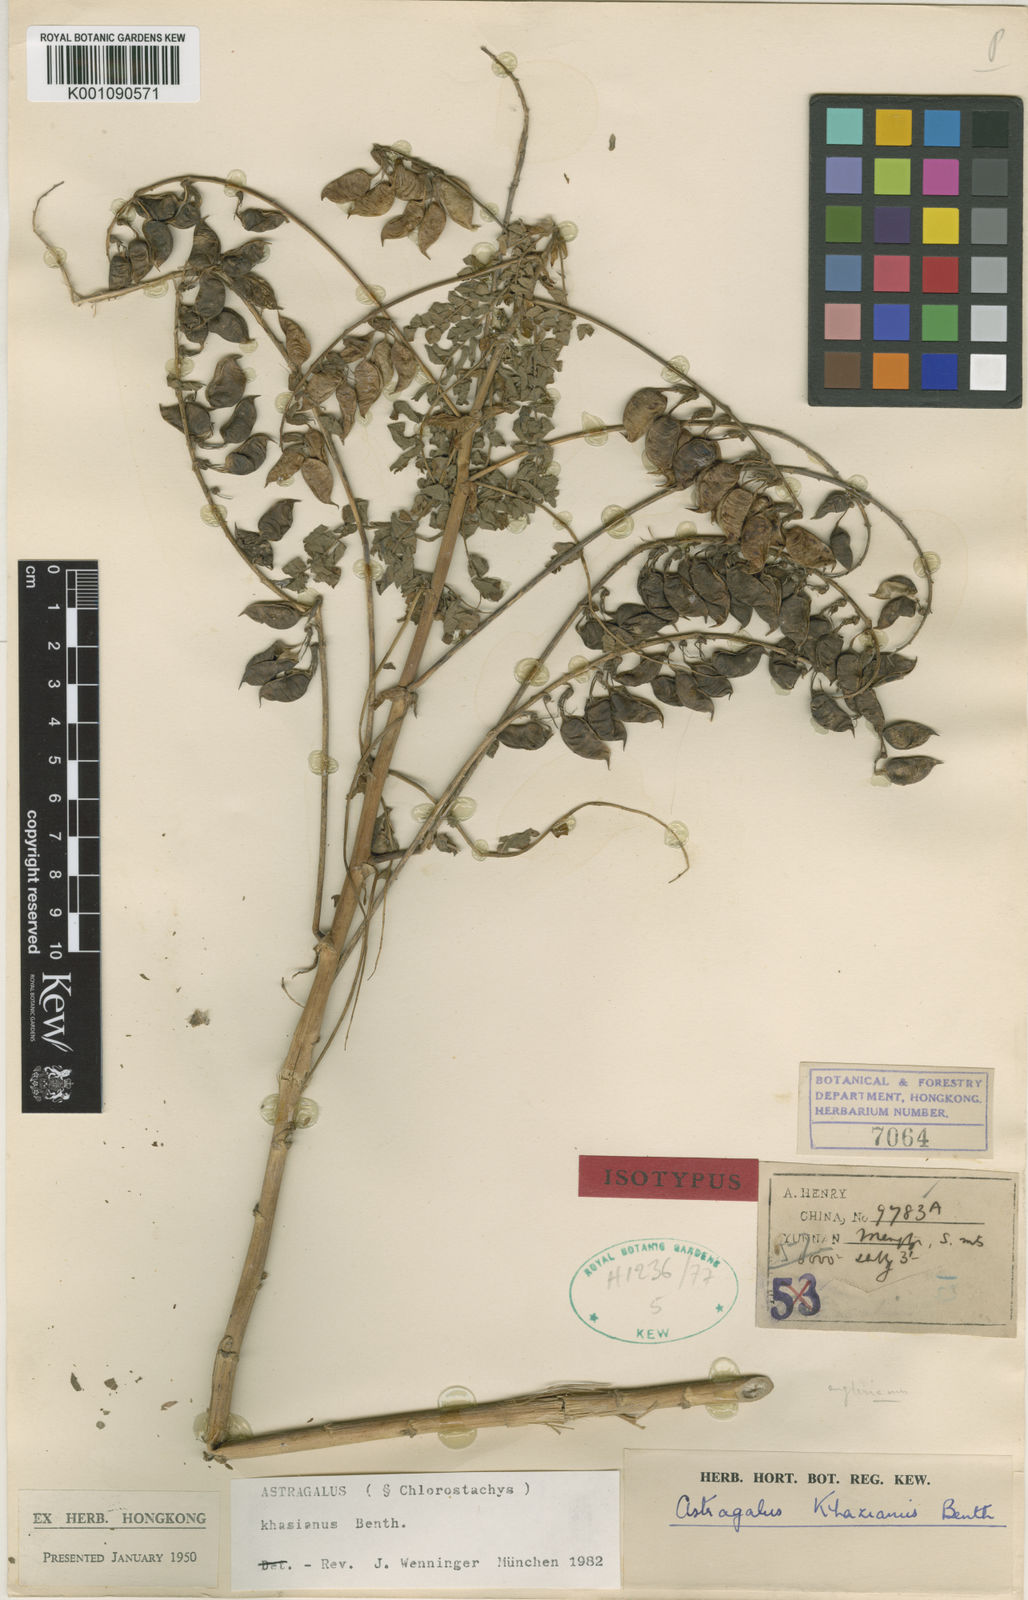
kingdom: Plantae
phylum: Tracheophyta
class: Magnoliopsida
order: Fabales
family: Fabaceae
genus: Astragalus
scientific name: Astragalus
